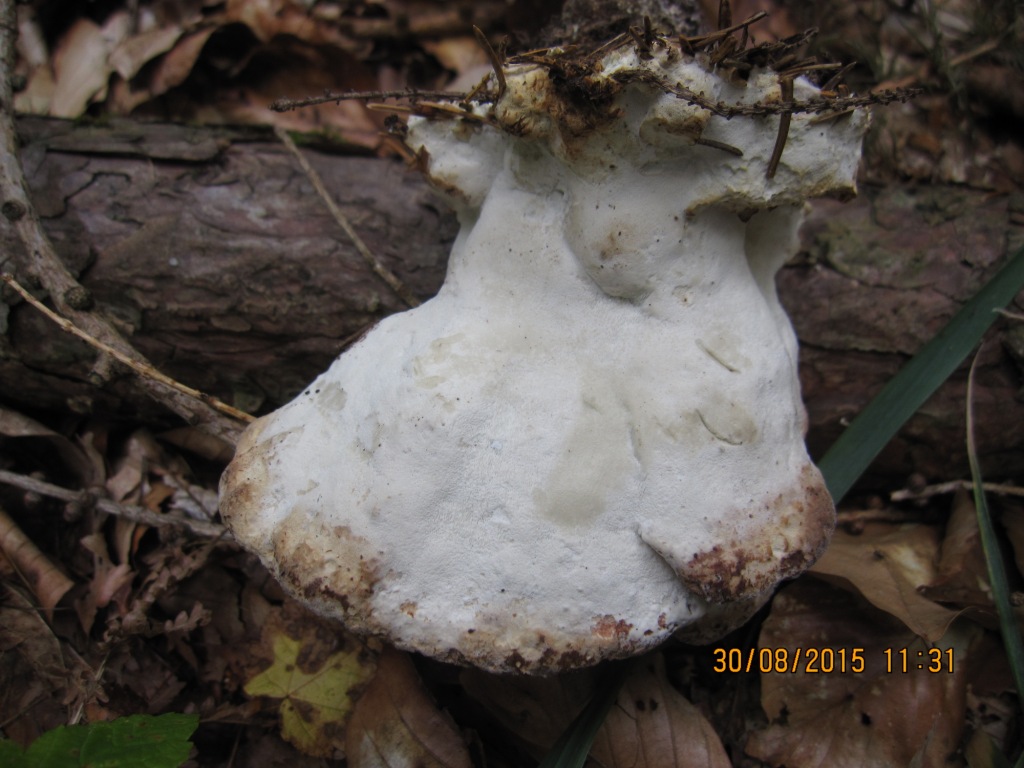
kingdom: Fungi
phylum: Basidiomycota
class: Agaricomycetes
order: Polyporales
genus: Calcipostia
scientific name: Calcipostia guttulata
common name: dråbe-kødporesvamp
